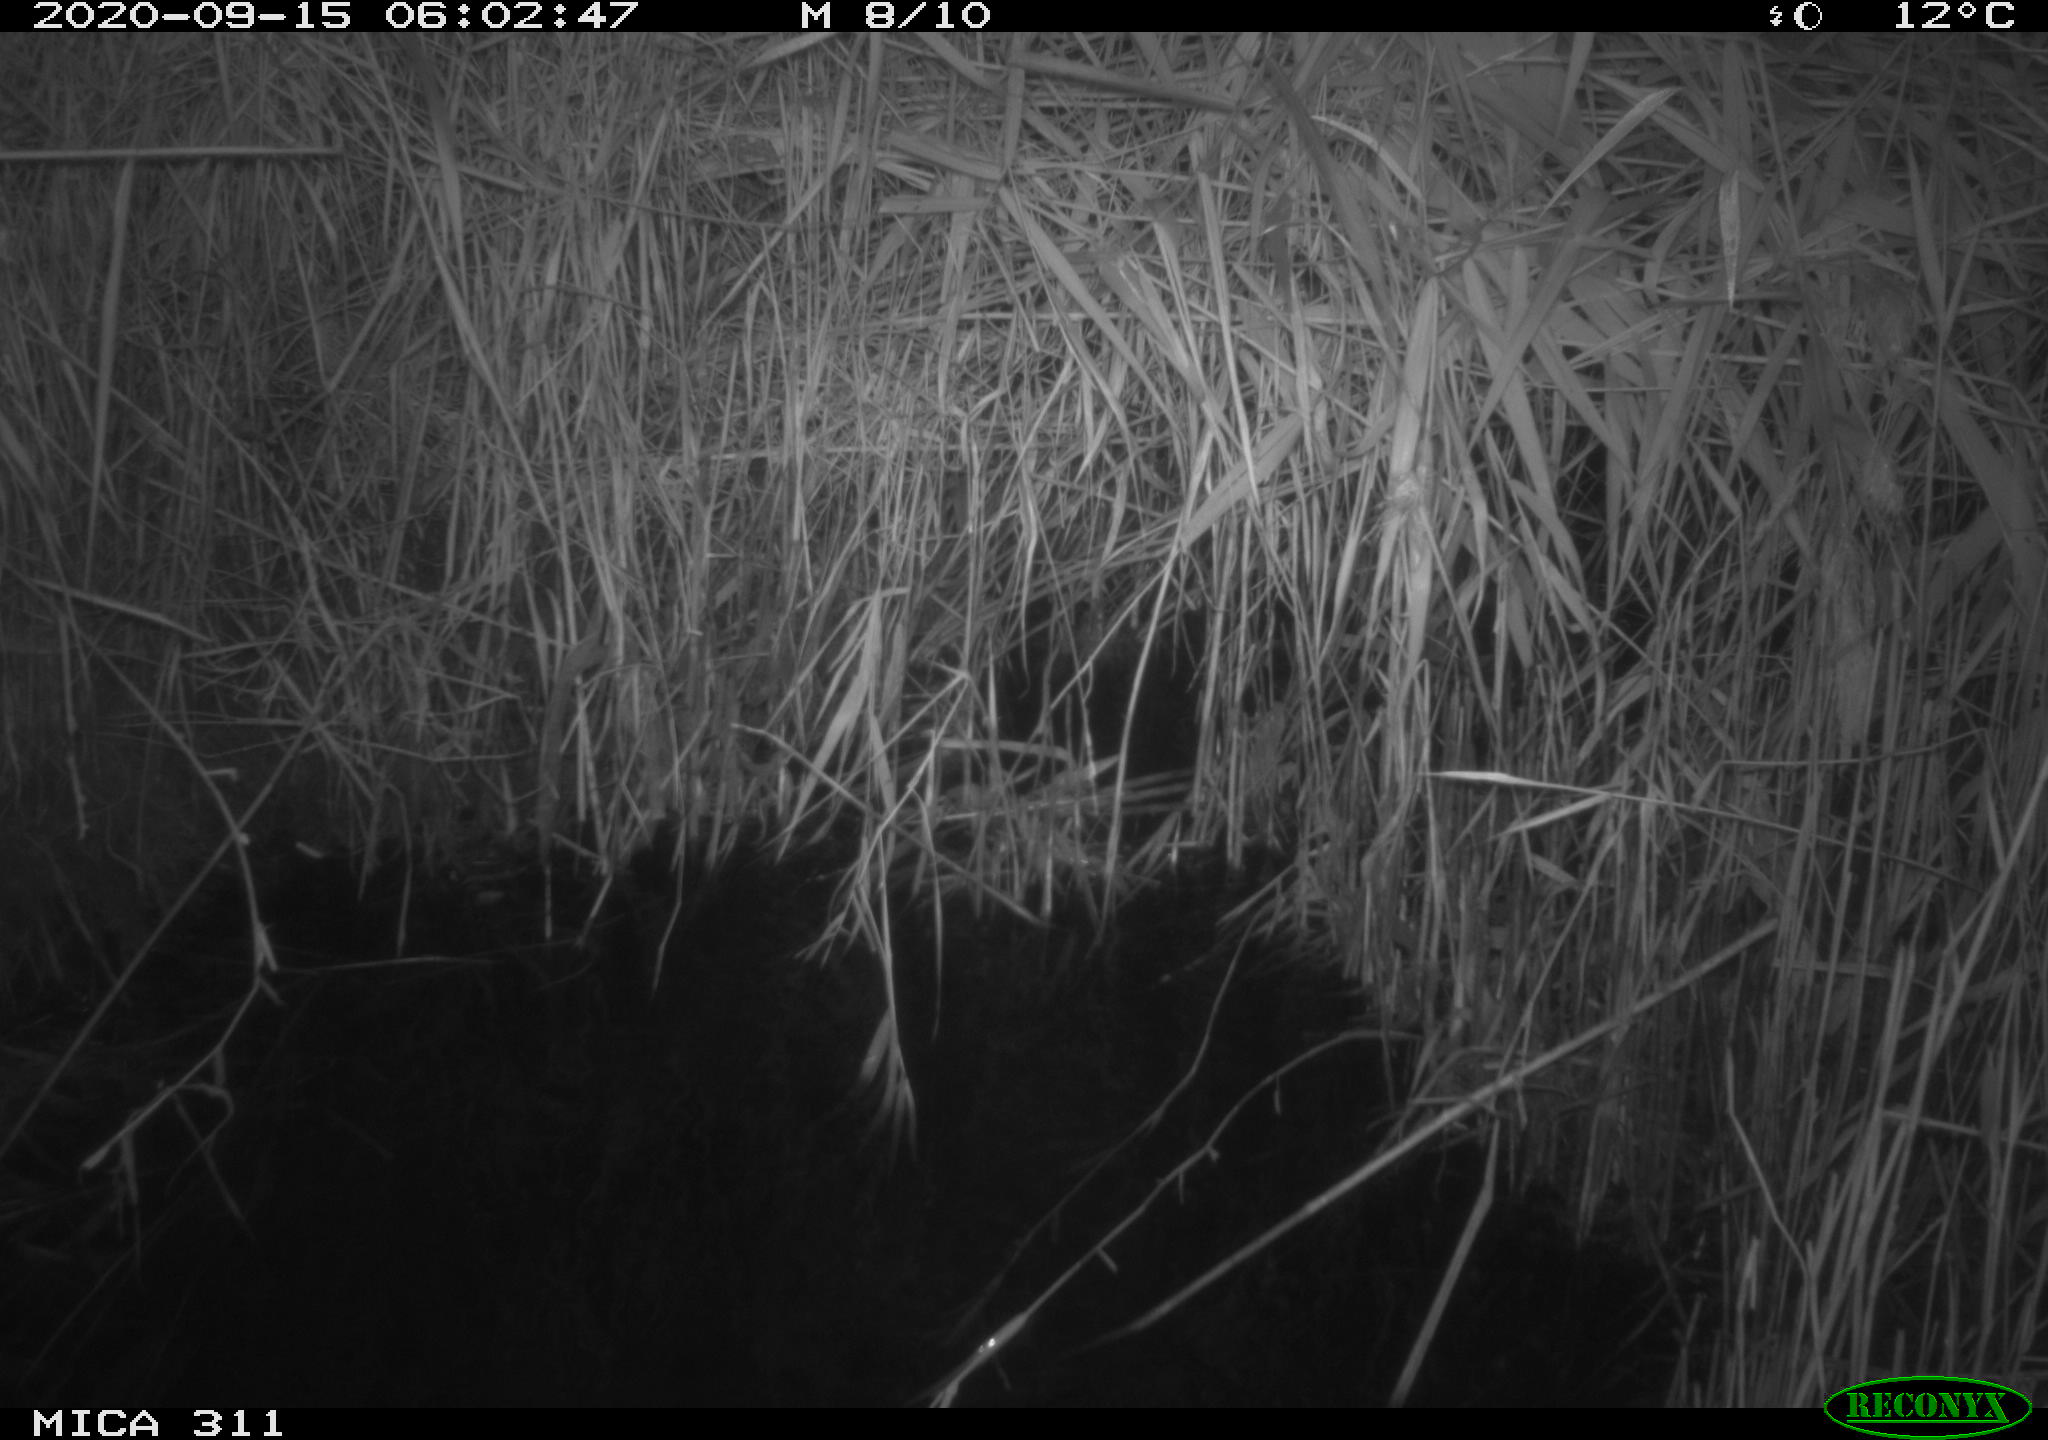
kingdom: Animalia
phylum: Chordata
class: Mammalia
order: Rodentia
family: Muridae
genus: Rattus
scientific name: Rattus norvegicus
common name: Brown rat
